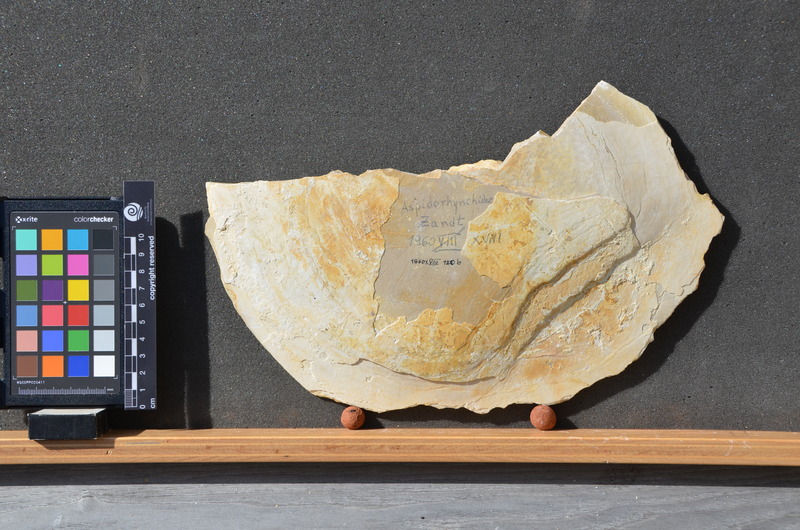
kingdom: Animalia
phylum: Chordata
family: Aspidorhynchidae
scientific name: Aspidorhynchidae
